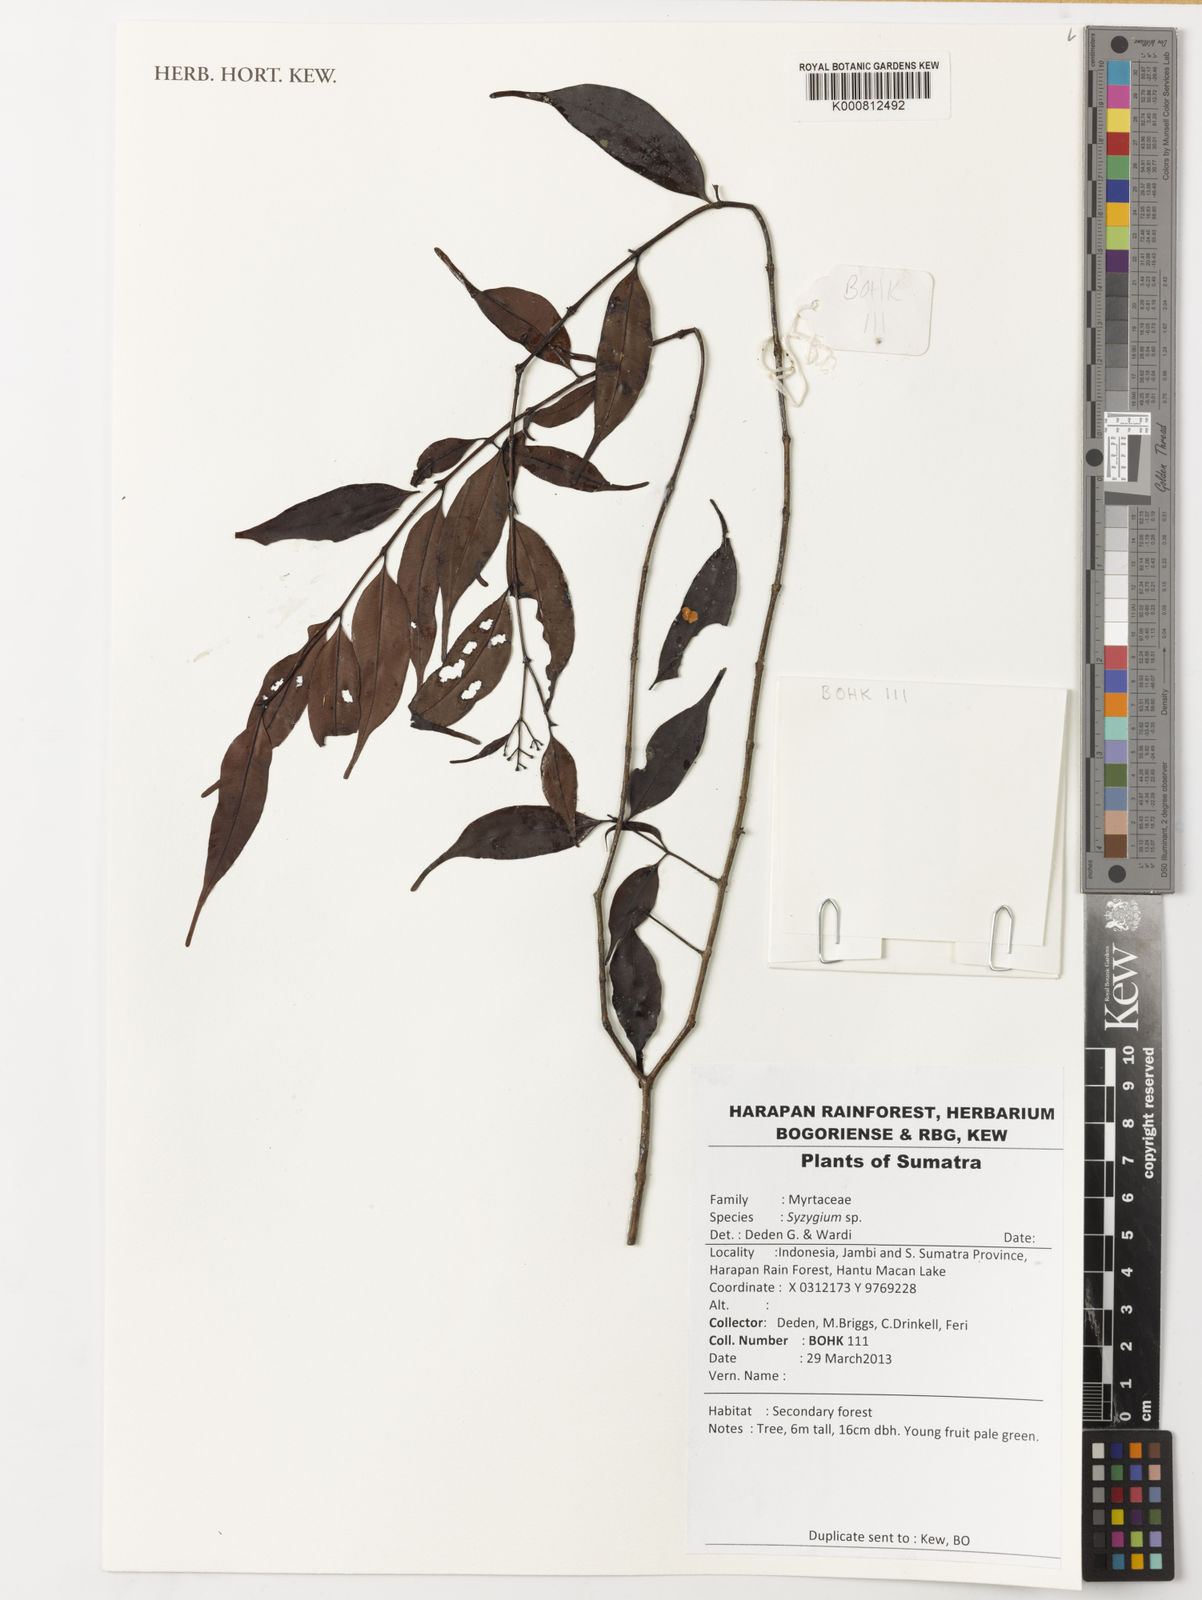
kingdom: Plantae
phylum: Tracheophyta
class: Magnoliopsida
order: Myrtales
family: Myrtaceae
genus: Syzygium
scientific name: Syzygium
